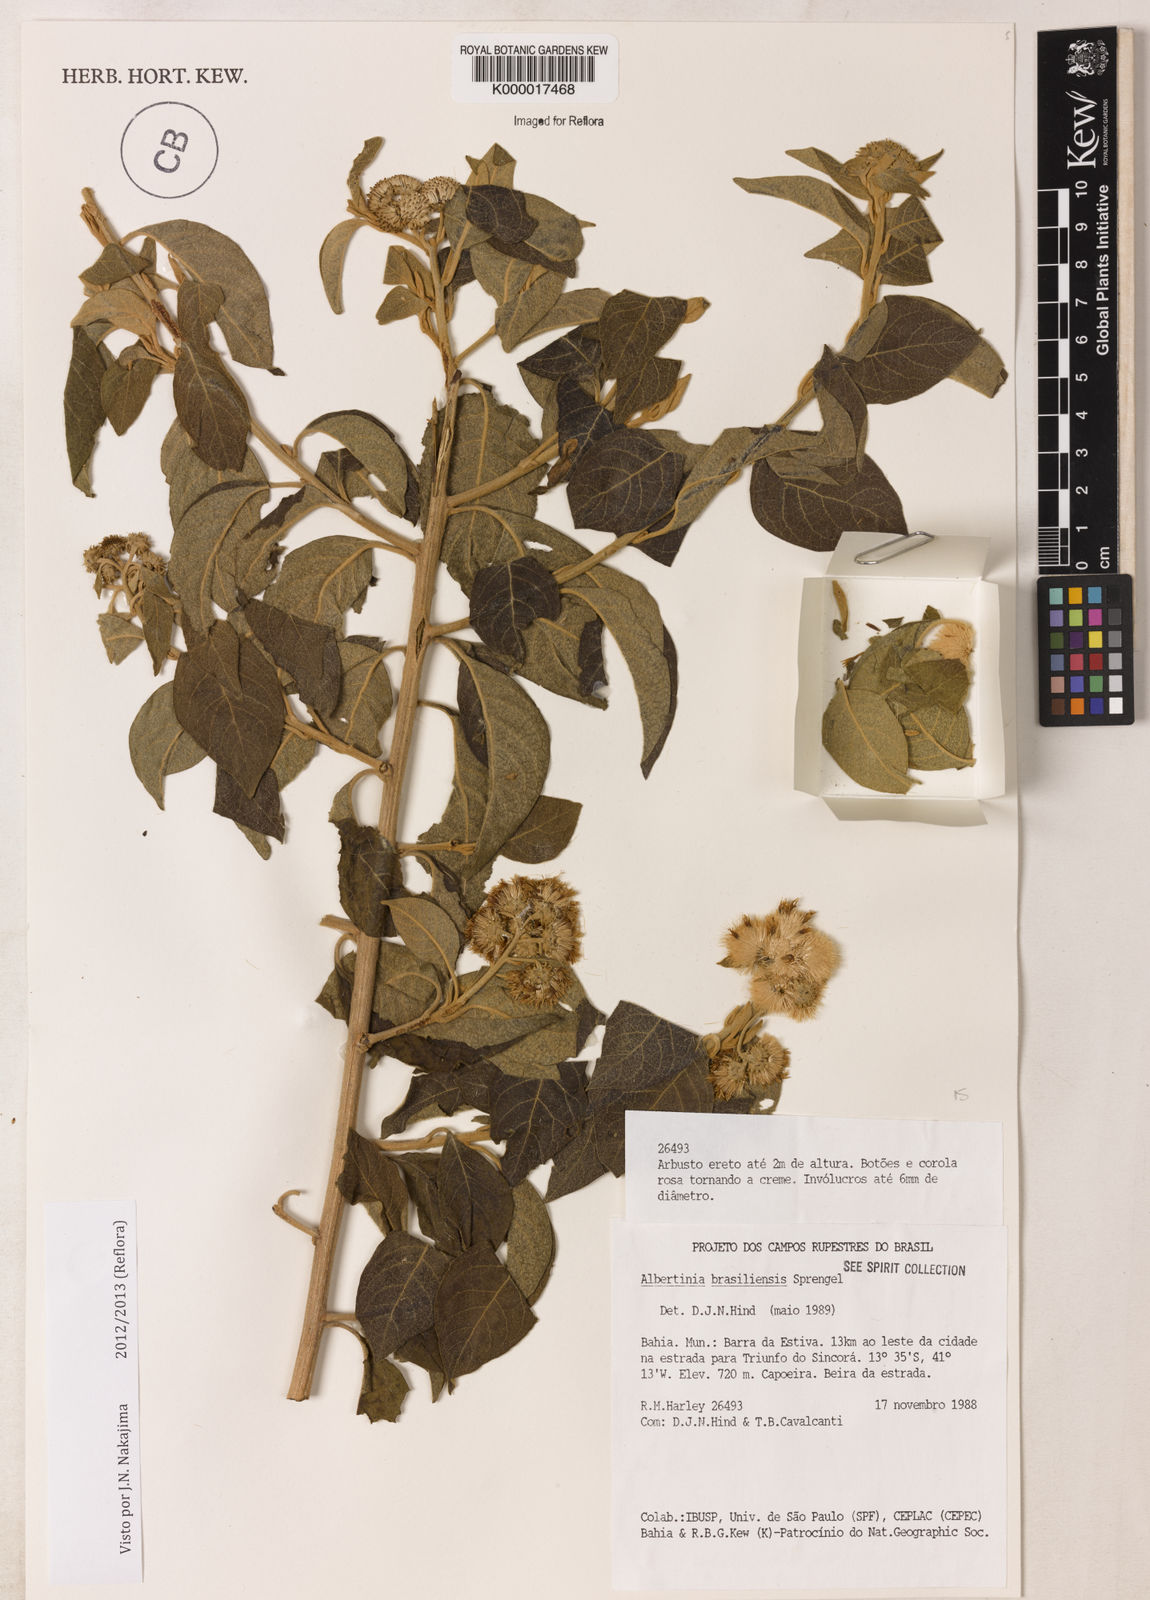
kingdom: Plantae
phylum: Tracheophyta
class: Magnoliopsida
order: Asterales
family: Asteraceae
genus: Albertinia
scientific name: Albertinia brasiliensis
